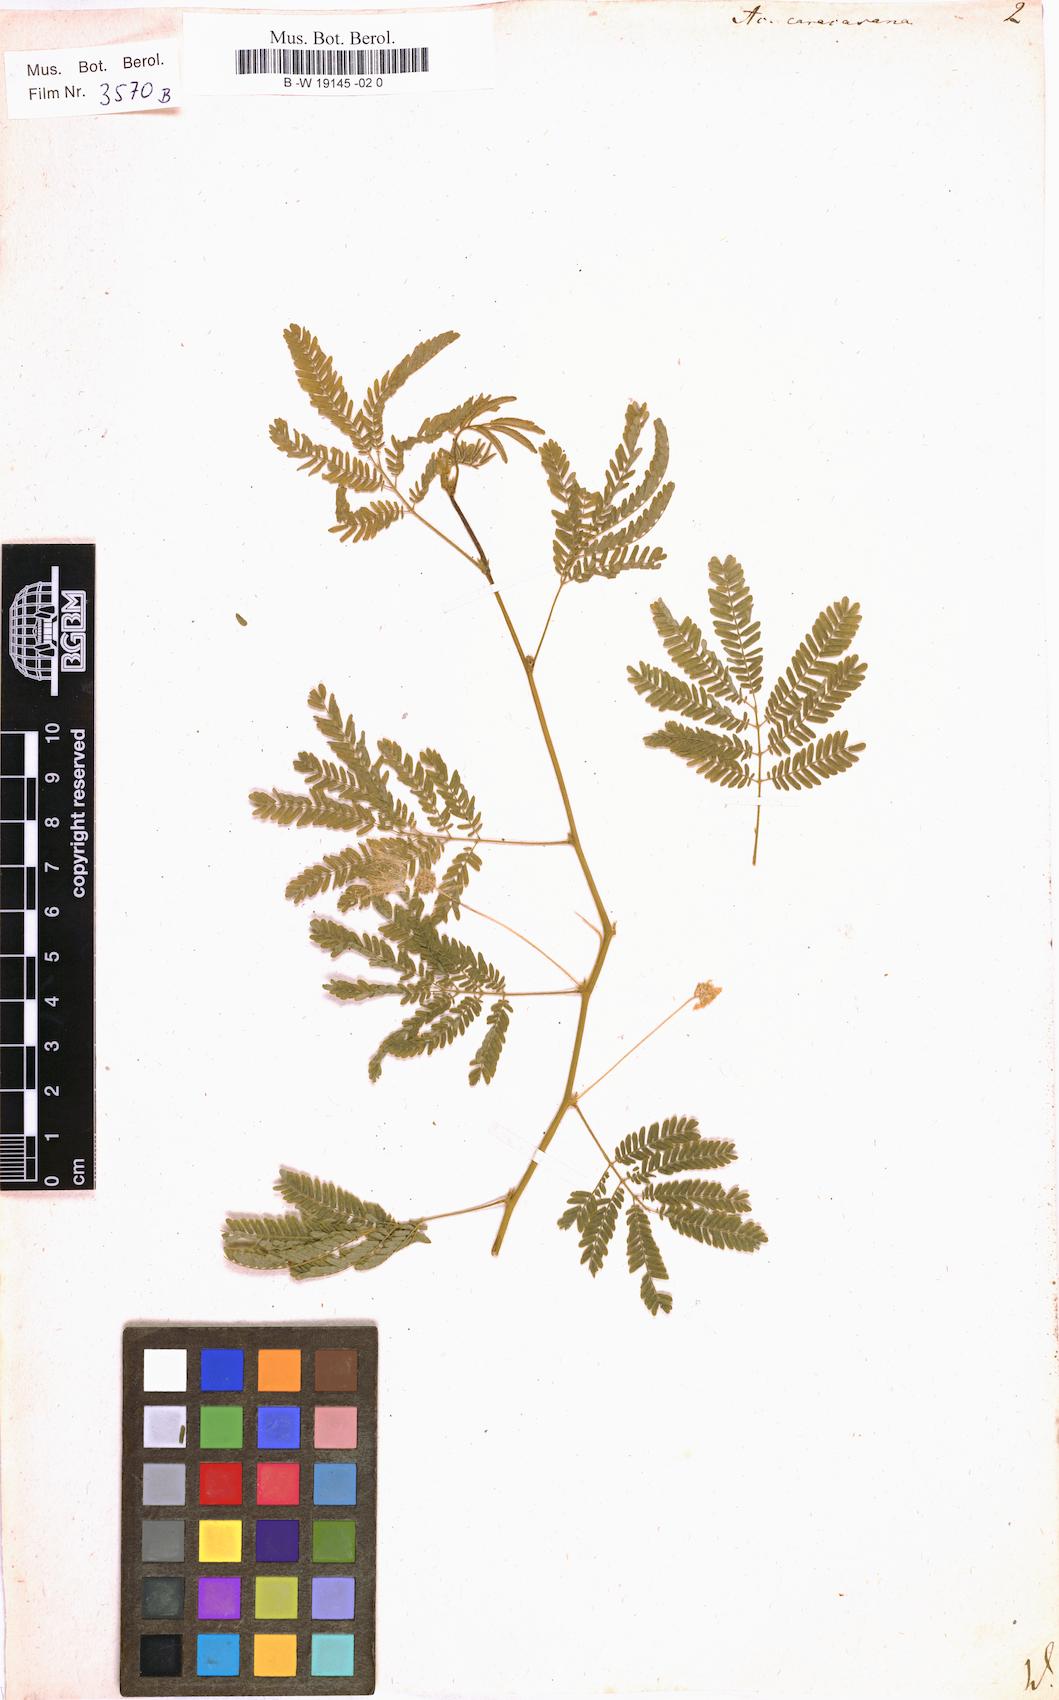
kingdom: Plantae
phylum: Tracheophyta
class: Magnoliopsida
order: Fabales
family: Fabaceae
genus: Zapoteca
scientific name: Zapoteca caracasana
